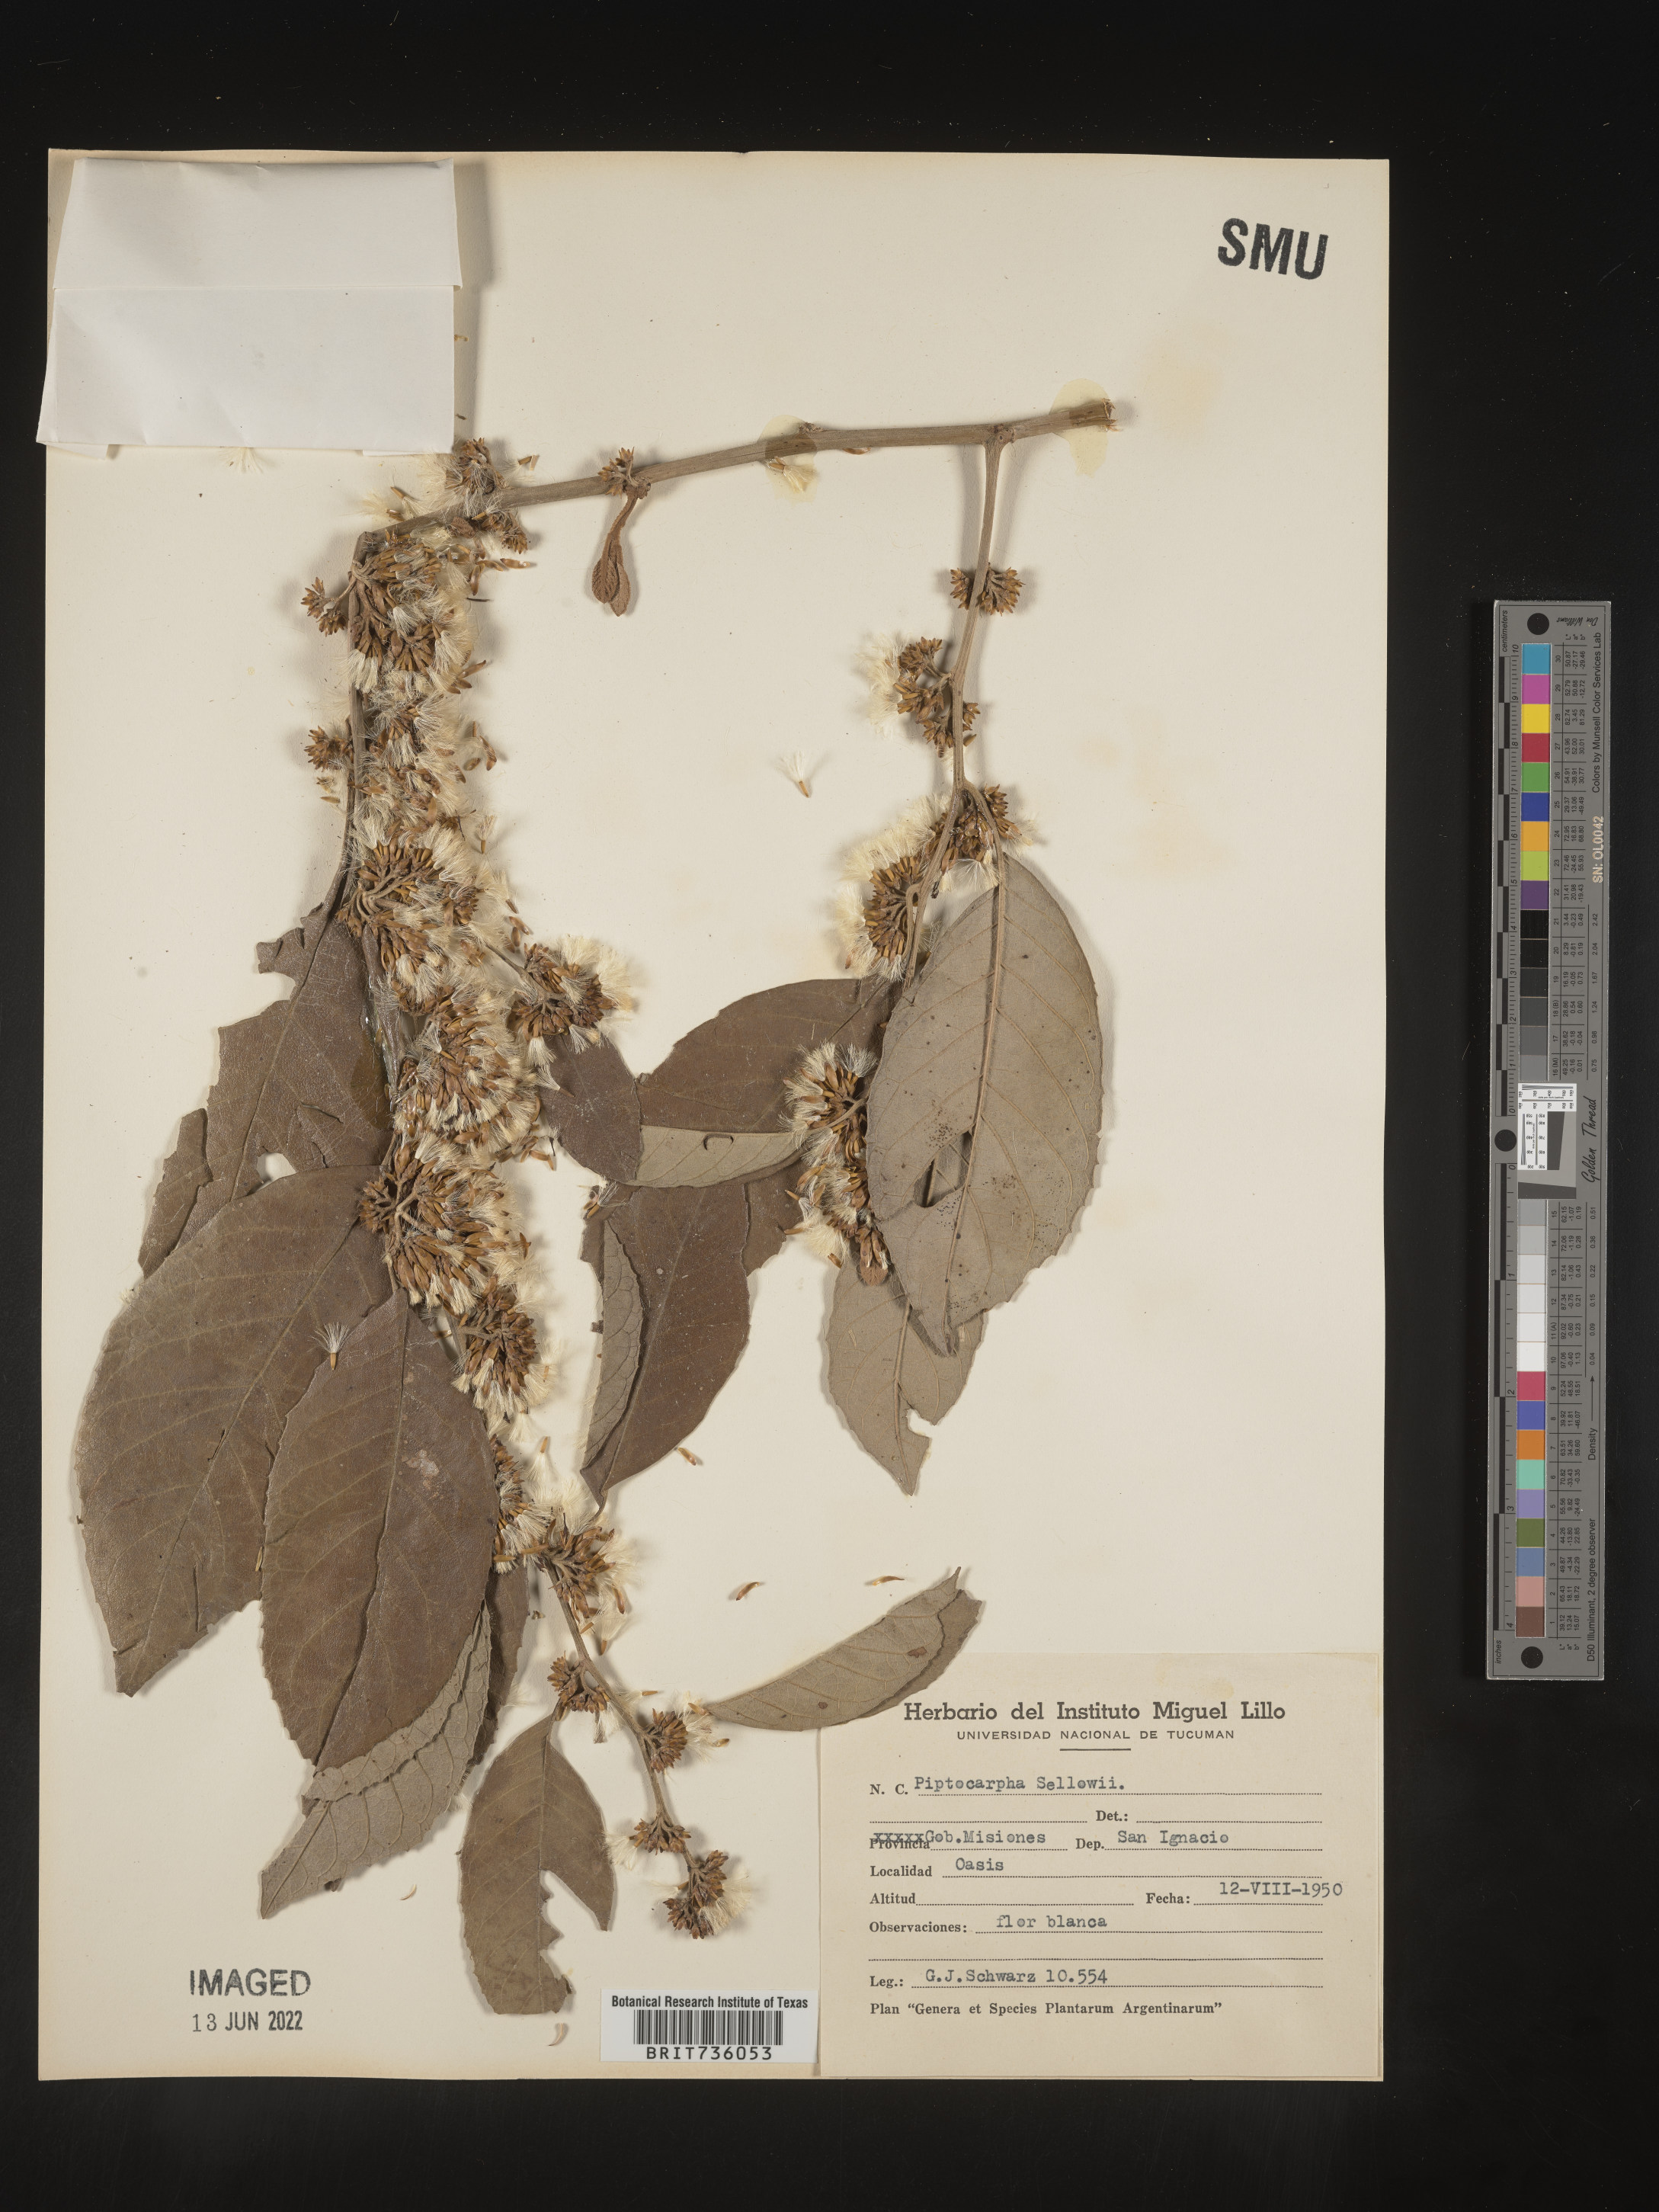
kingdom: Plantae
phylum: Tracheophyta
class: Magnoliopsida
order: Asterales
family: Asteraceae
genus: Piptocarpha
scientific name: Piptocarpha
